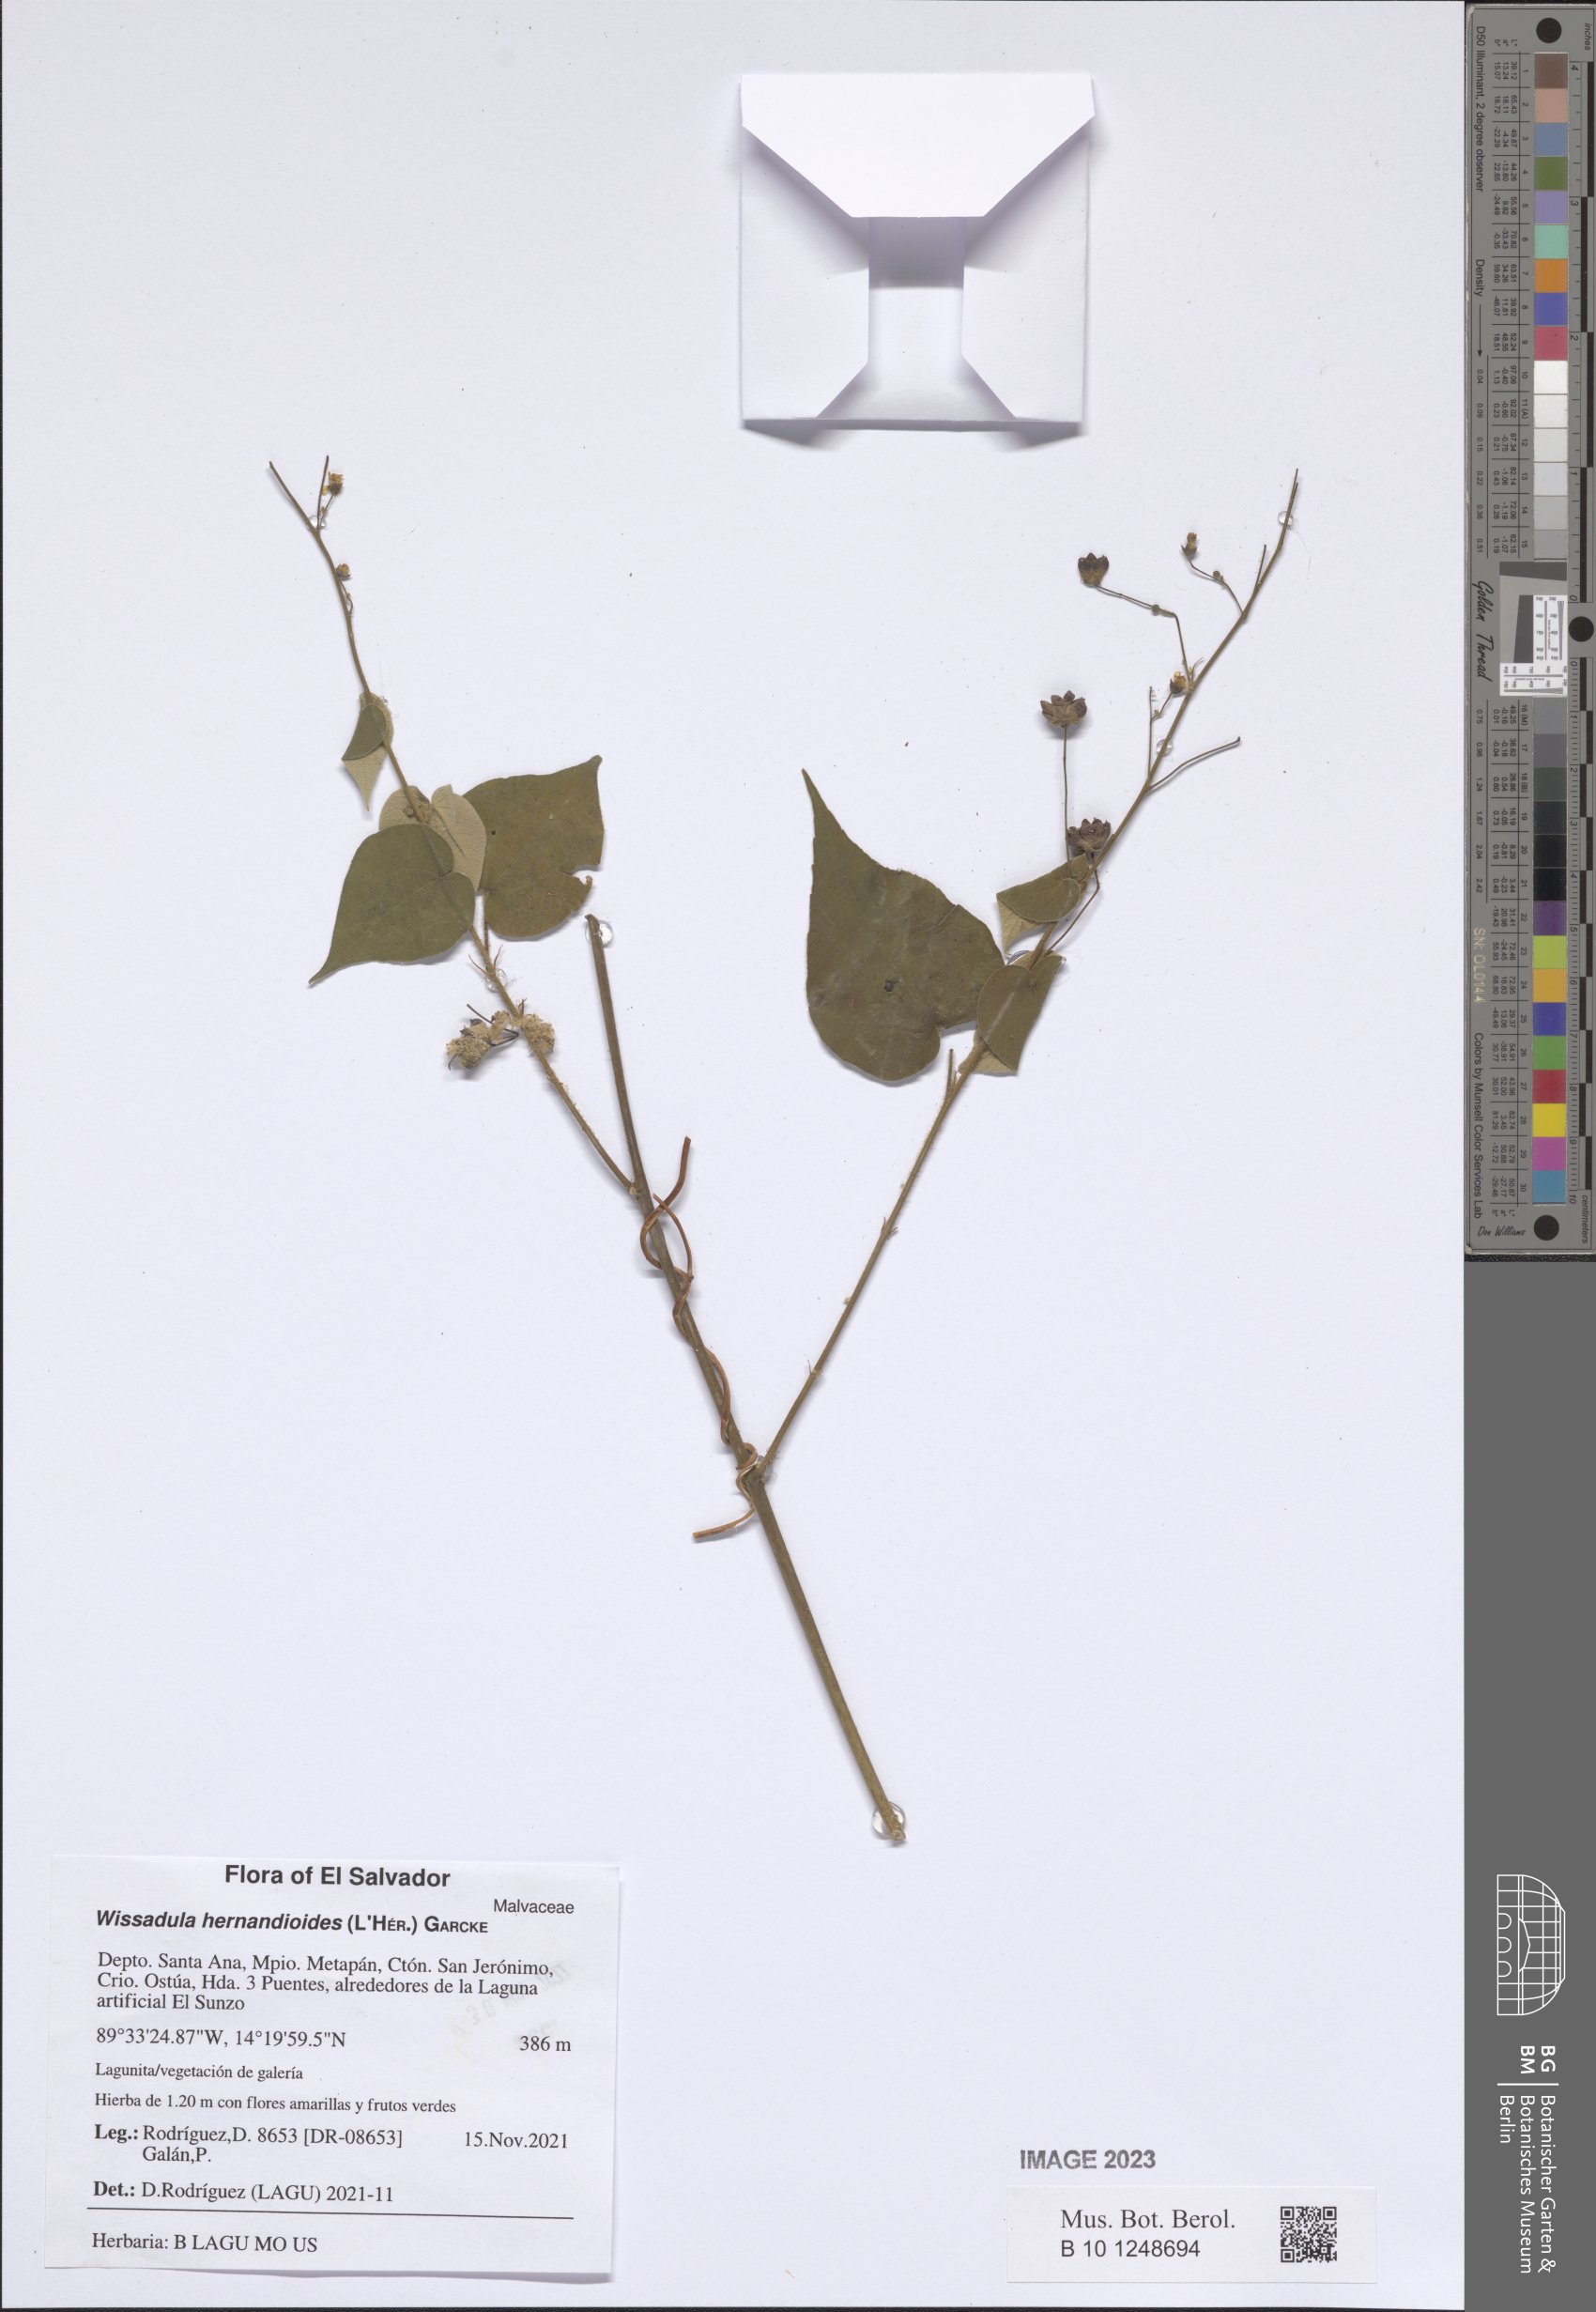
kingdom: Plantae
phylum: Tracheophyta
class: Magnoliopsida
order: Malvales
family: Malvaceae
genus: Wissadula
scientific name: Wissadula hernandioides
